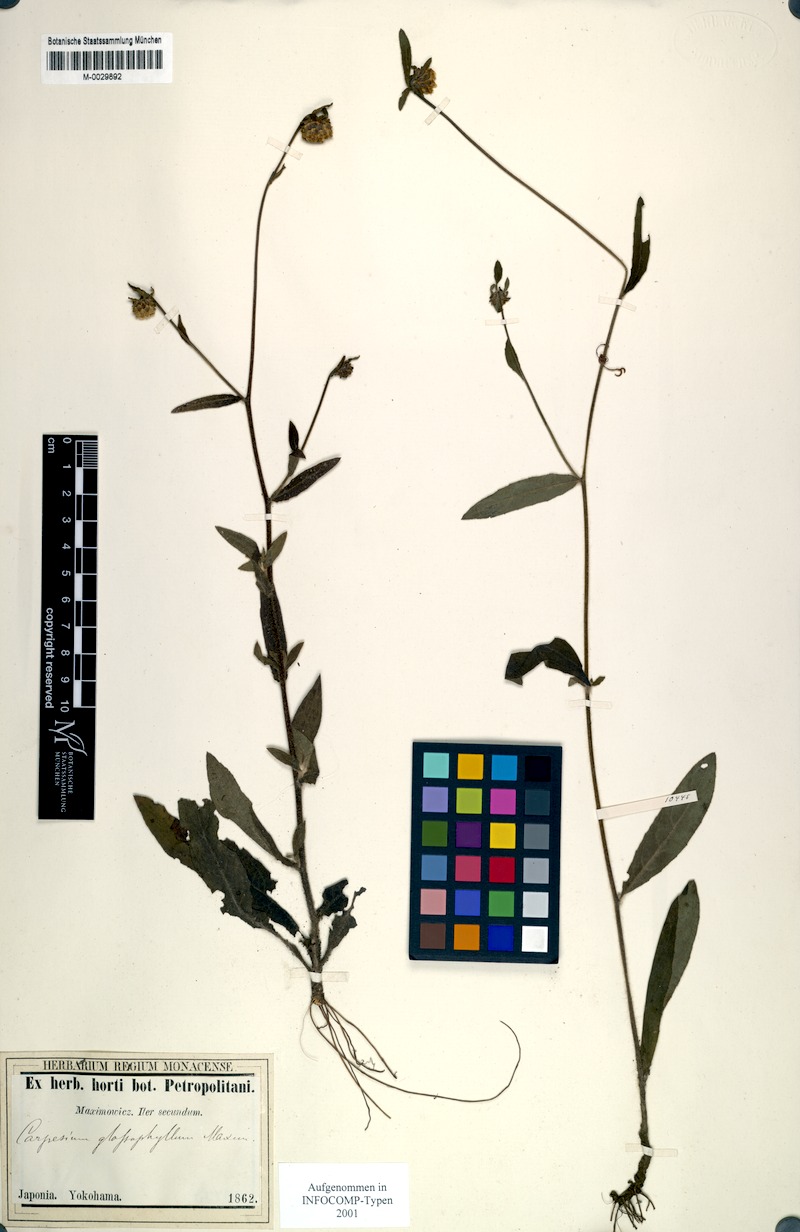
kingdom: Plantae
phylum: Tracheophyta
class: Magnoliopsida
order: Asterales
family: Asteraceae
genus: Carpesium
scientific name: Carpesium glossophyllum
